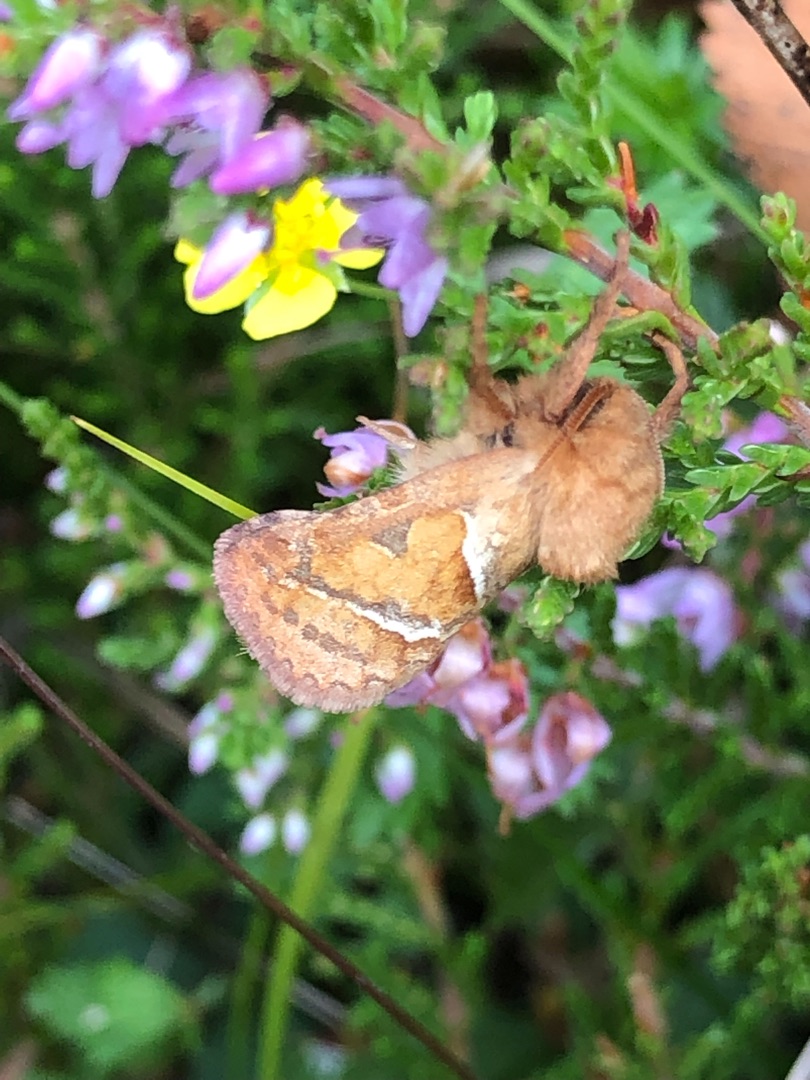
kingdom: Animalia
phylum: Arthropoda
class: Insecta
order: Lepidoptera
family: Hepialidae
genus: Triodia
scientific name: Triodia sylvina
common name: Skræpperodæder
